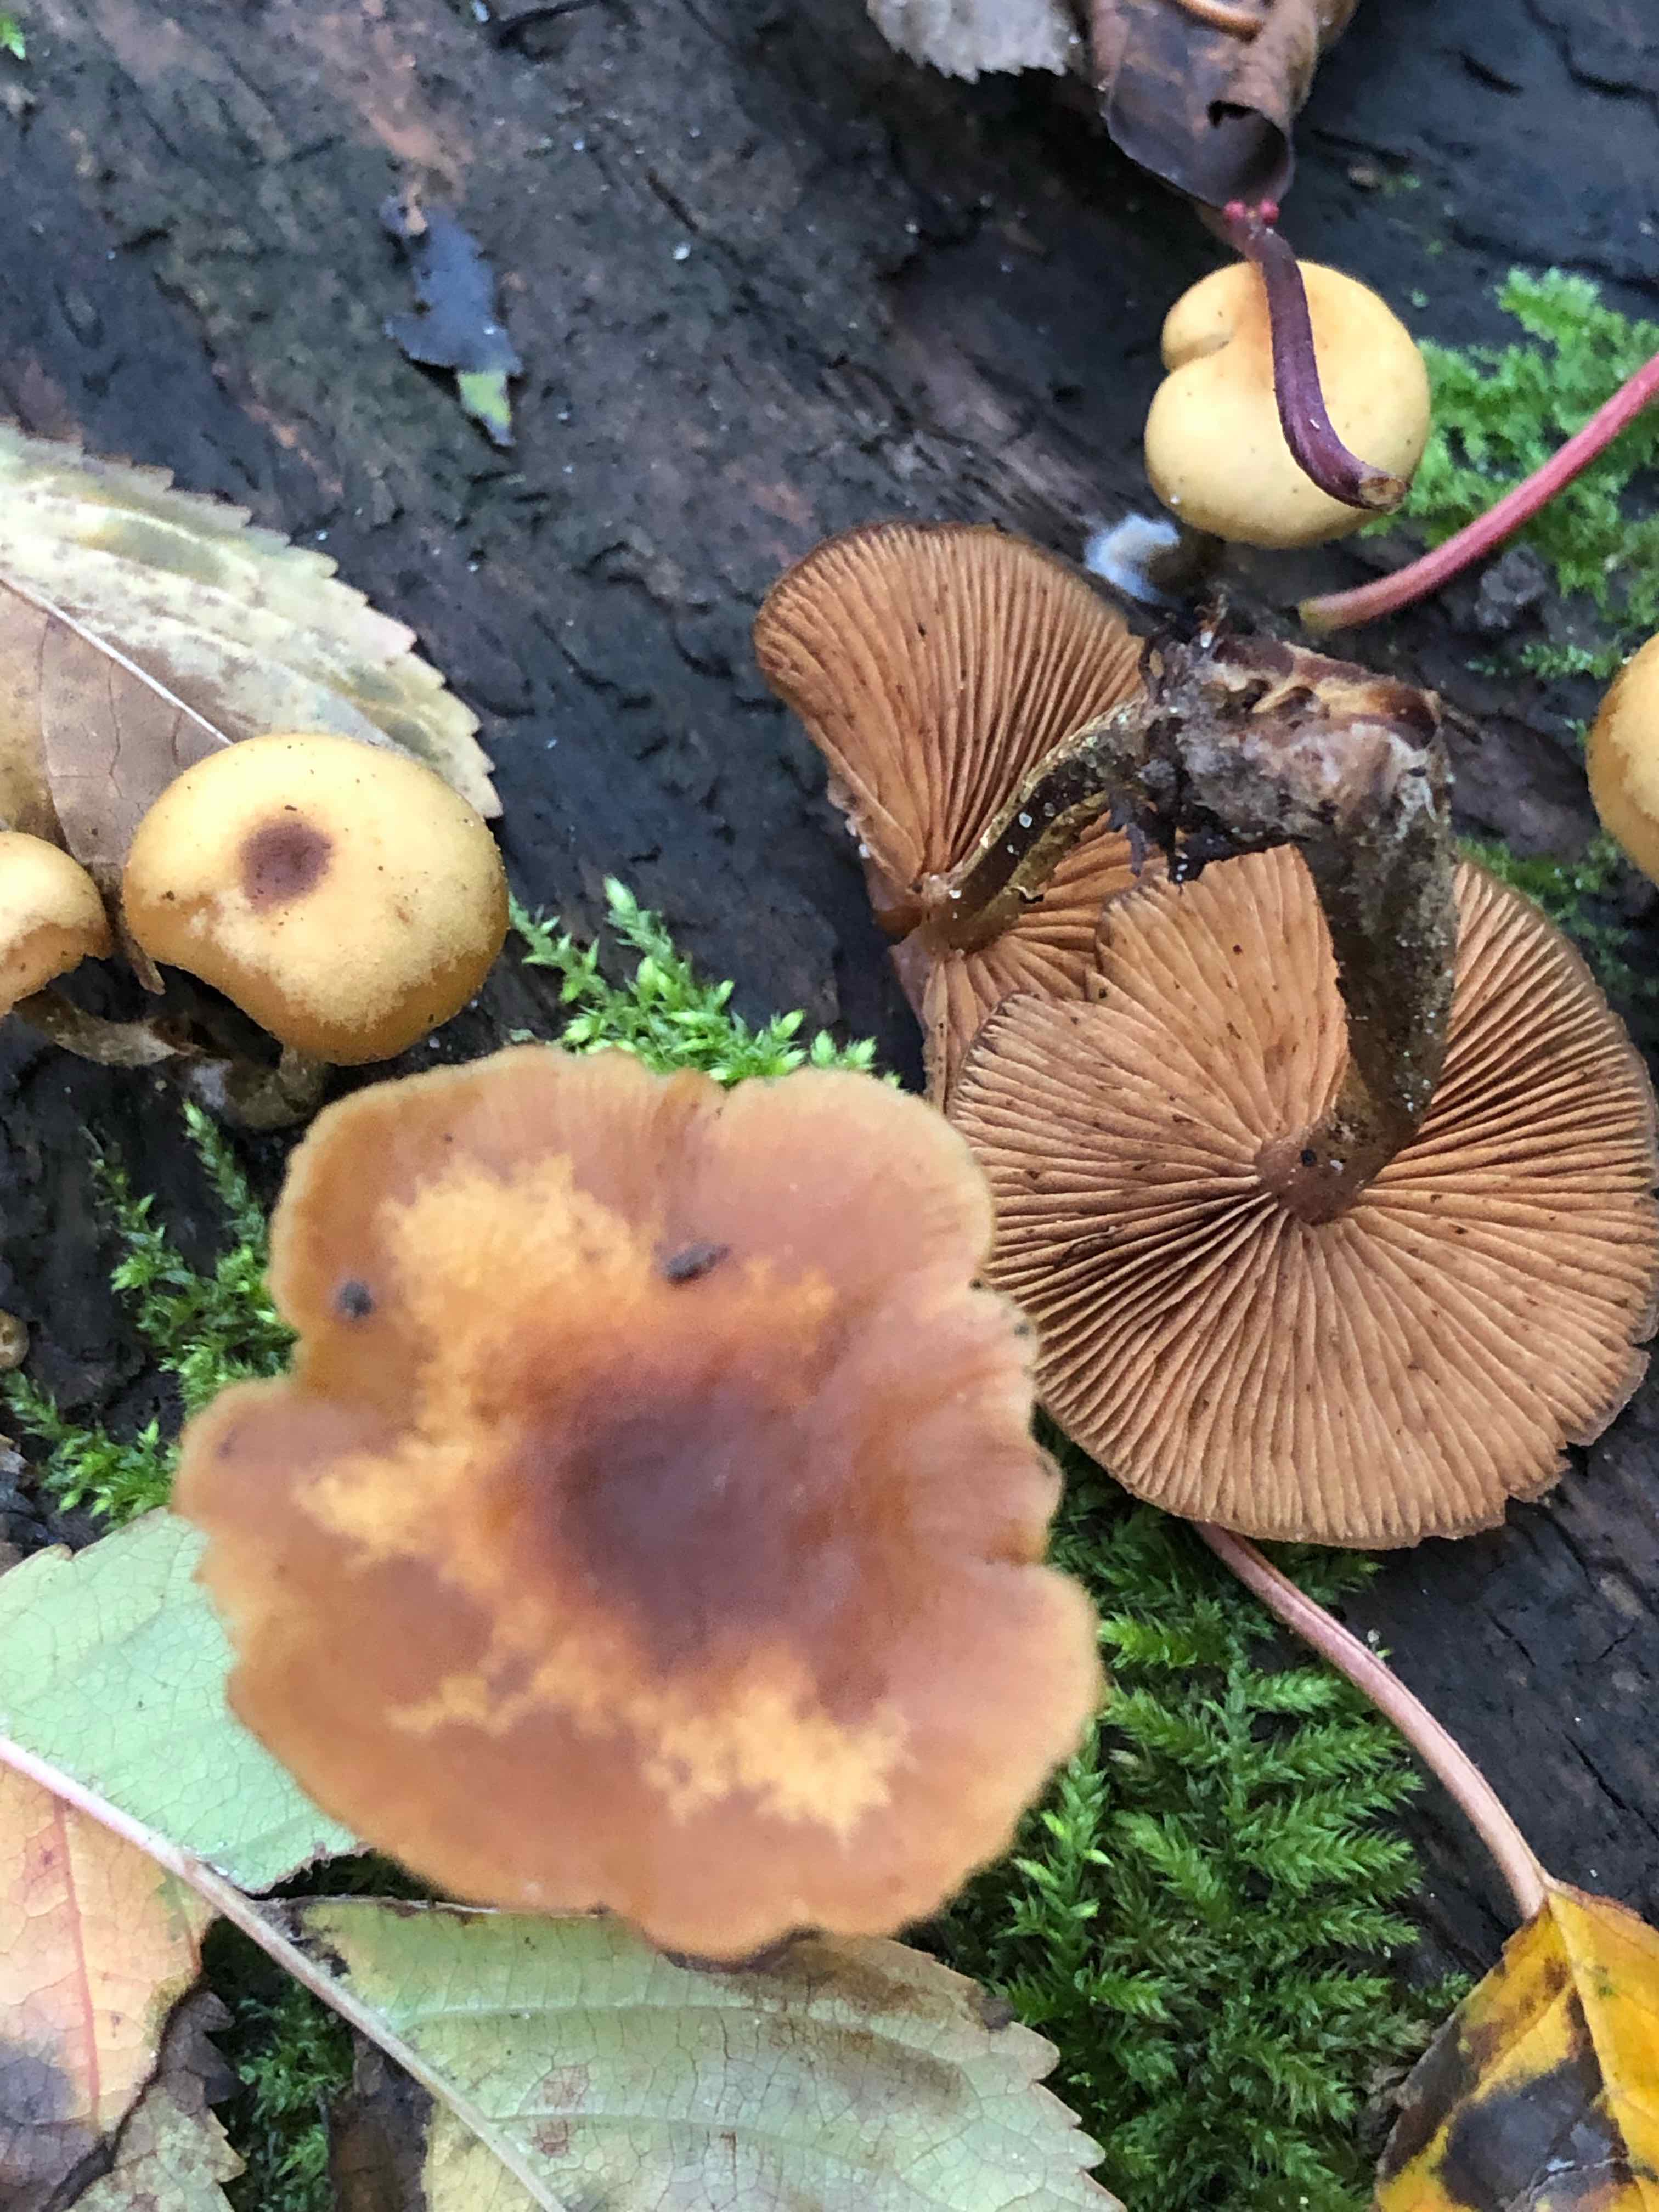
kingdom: Fungi
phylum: Basidiomycota
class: Agaricomycetes
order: Agaricales
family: Strophariaceae
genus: Kuehneromyces
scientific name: Kuehneromyces mutabilis
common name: foranderlig skælhat
